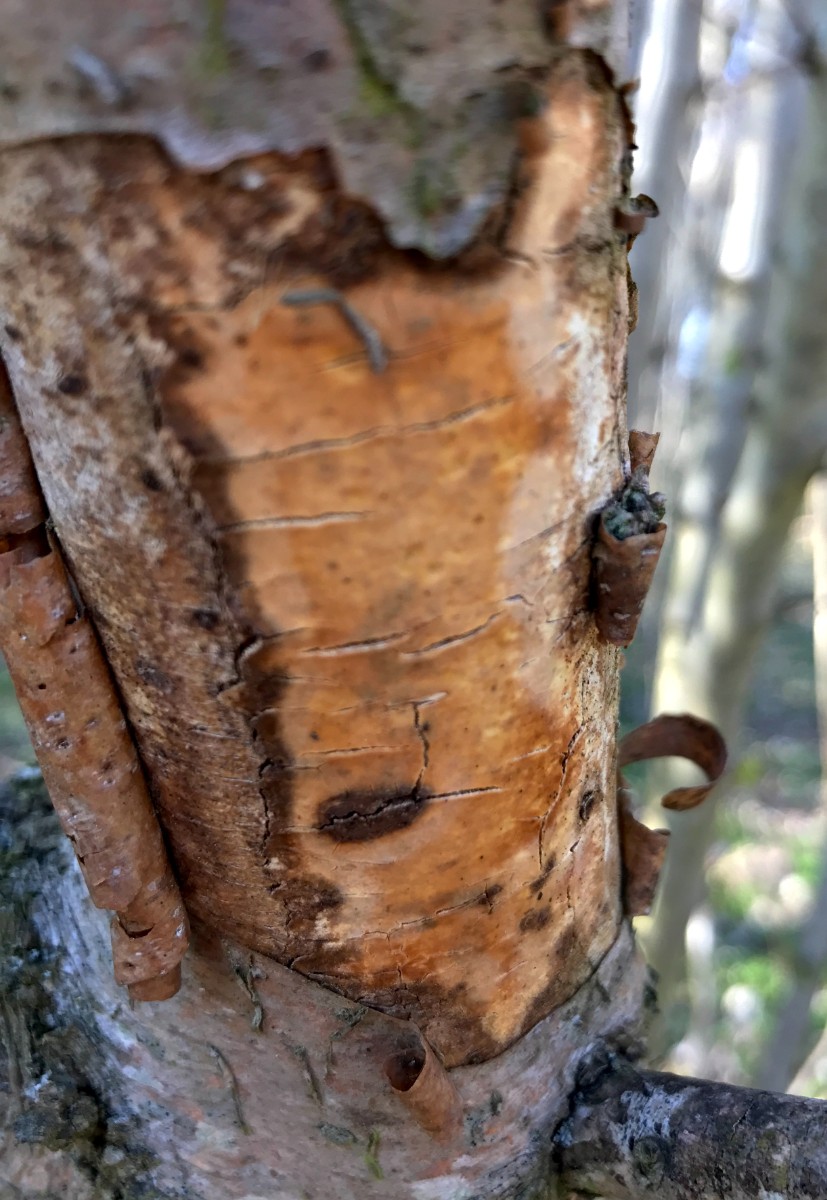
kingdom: Fungi
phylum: Basidiomycota
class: Agaricomycetes
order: Corticiales
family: Vuilleminiaceae
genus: Vuilleminia
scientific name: Vuilleminia coryli
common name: hassel-barksprænger
